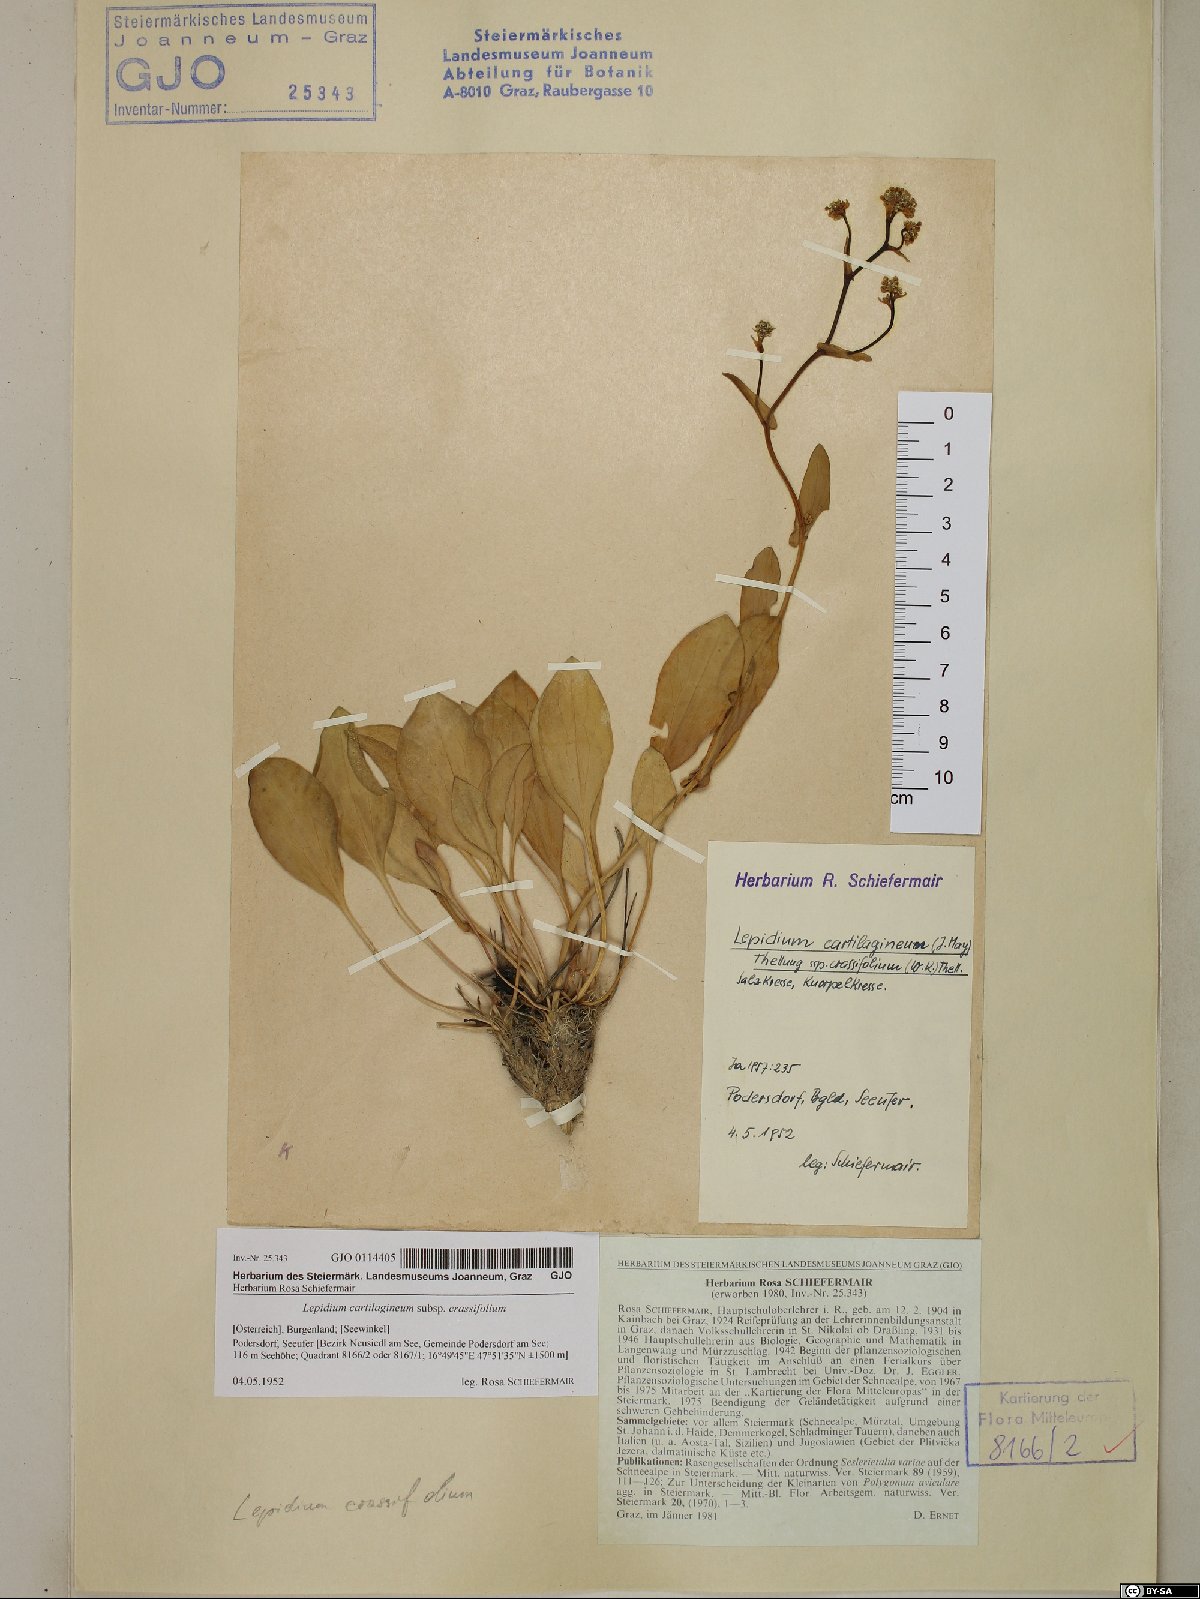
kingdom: Plantae
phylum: Tracheophyta
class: Magnoliopsida
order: Brassicales
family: Brassicaceae
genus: Lepidium
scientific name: Lepidium cartilagineum
